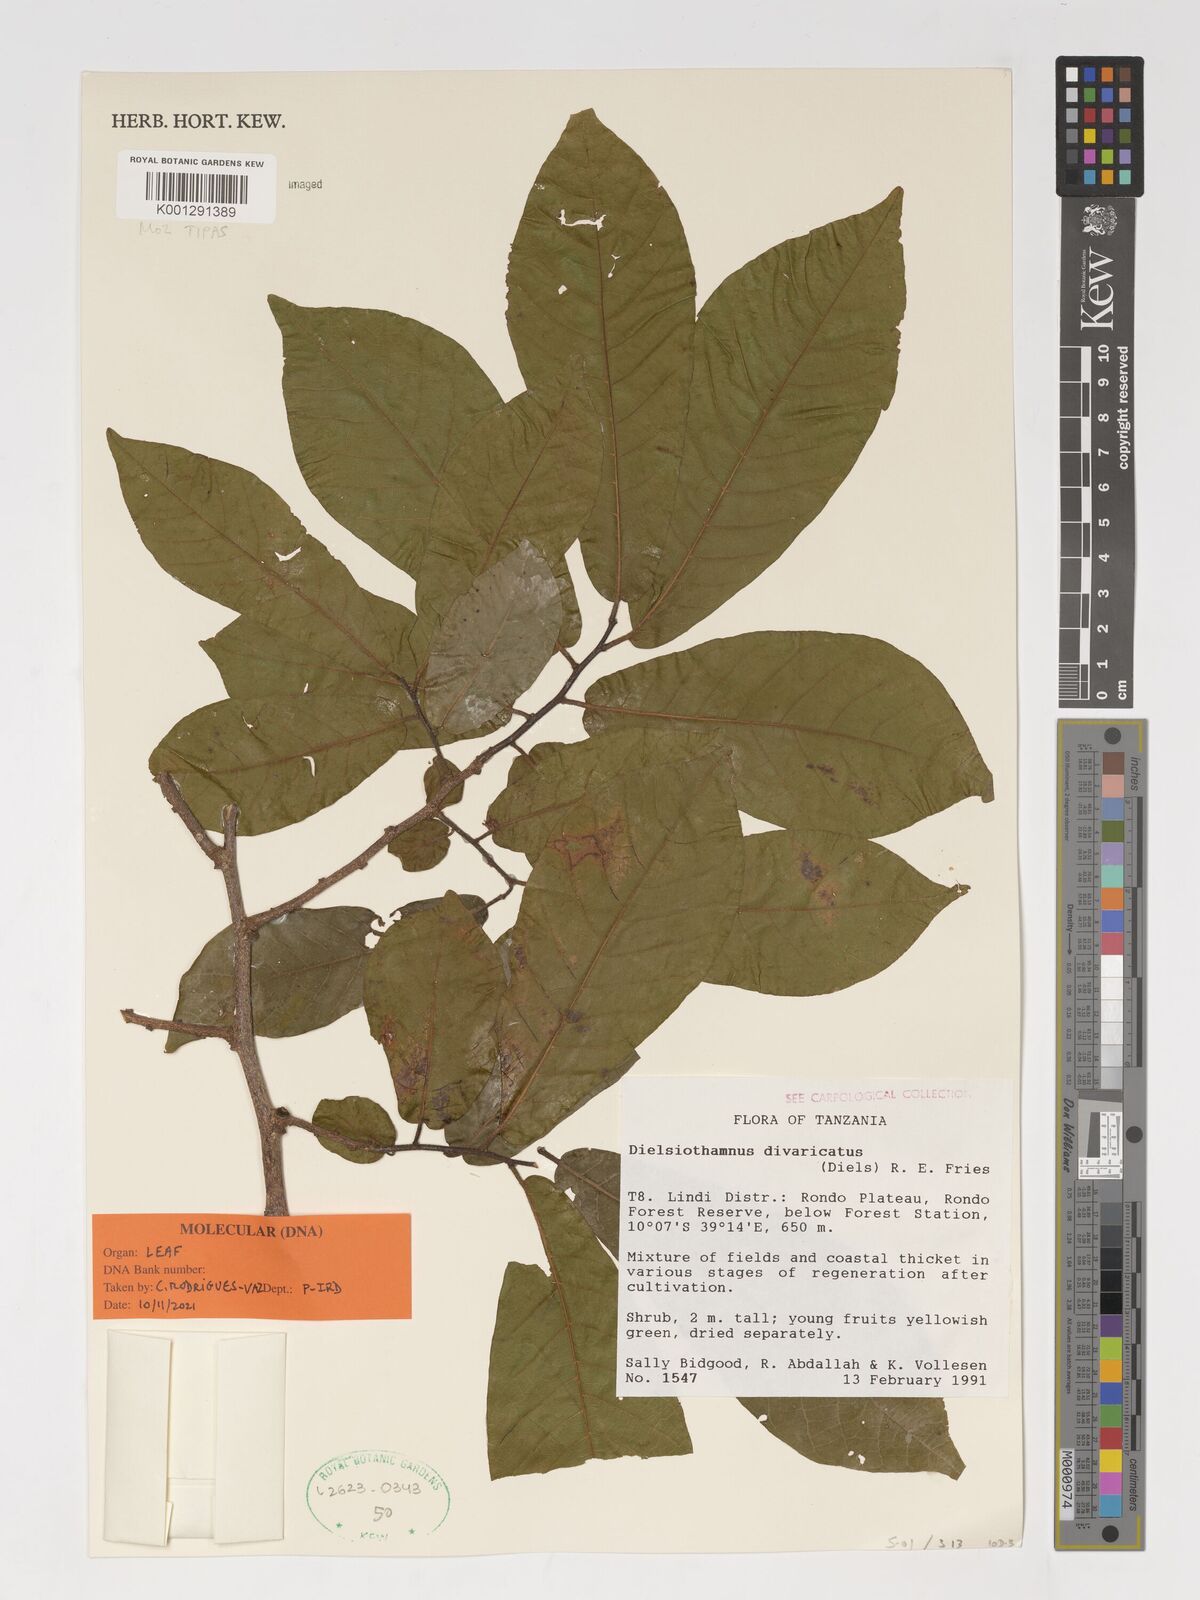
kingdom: Plantae
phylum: Tracheophyta
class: Magnoliopsida
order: Magnoliales
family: Annonaceae
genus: Dielsiothamnus
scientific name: Dielsiothamnus divaricatus
